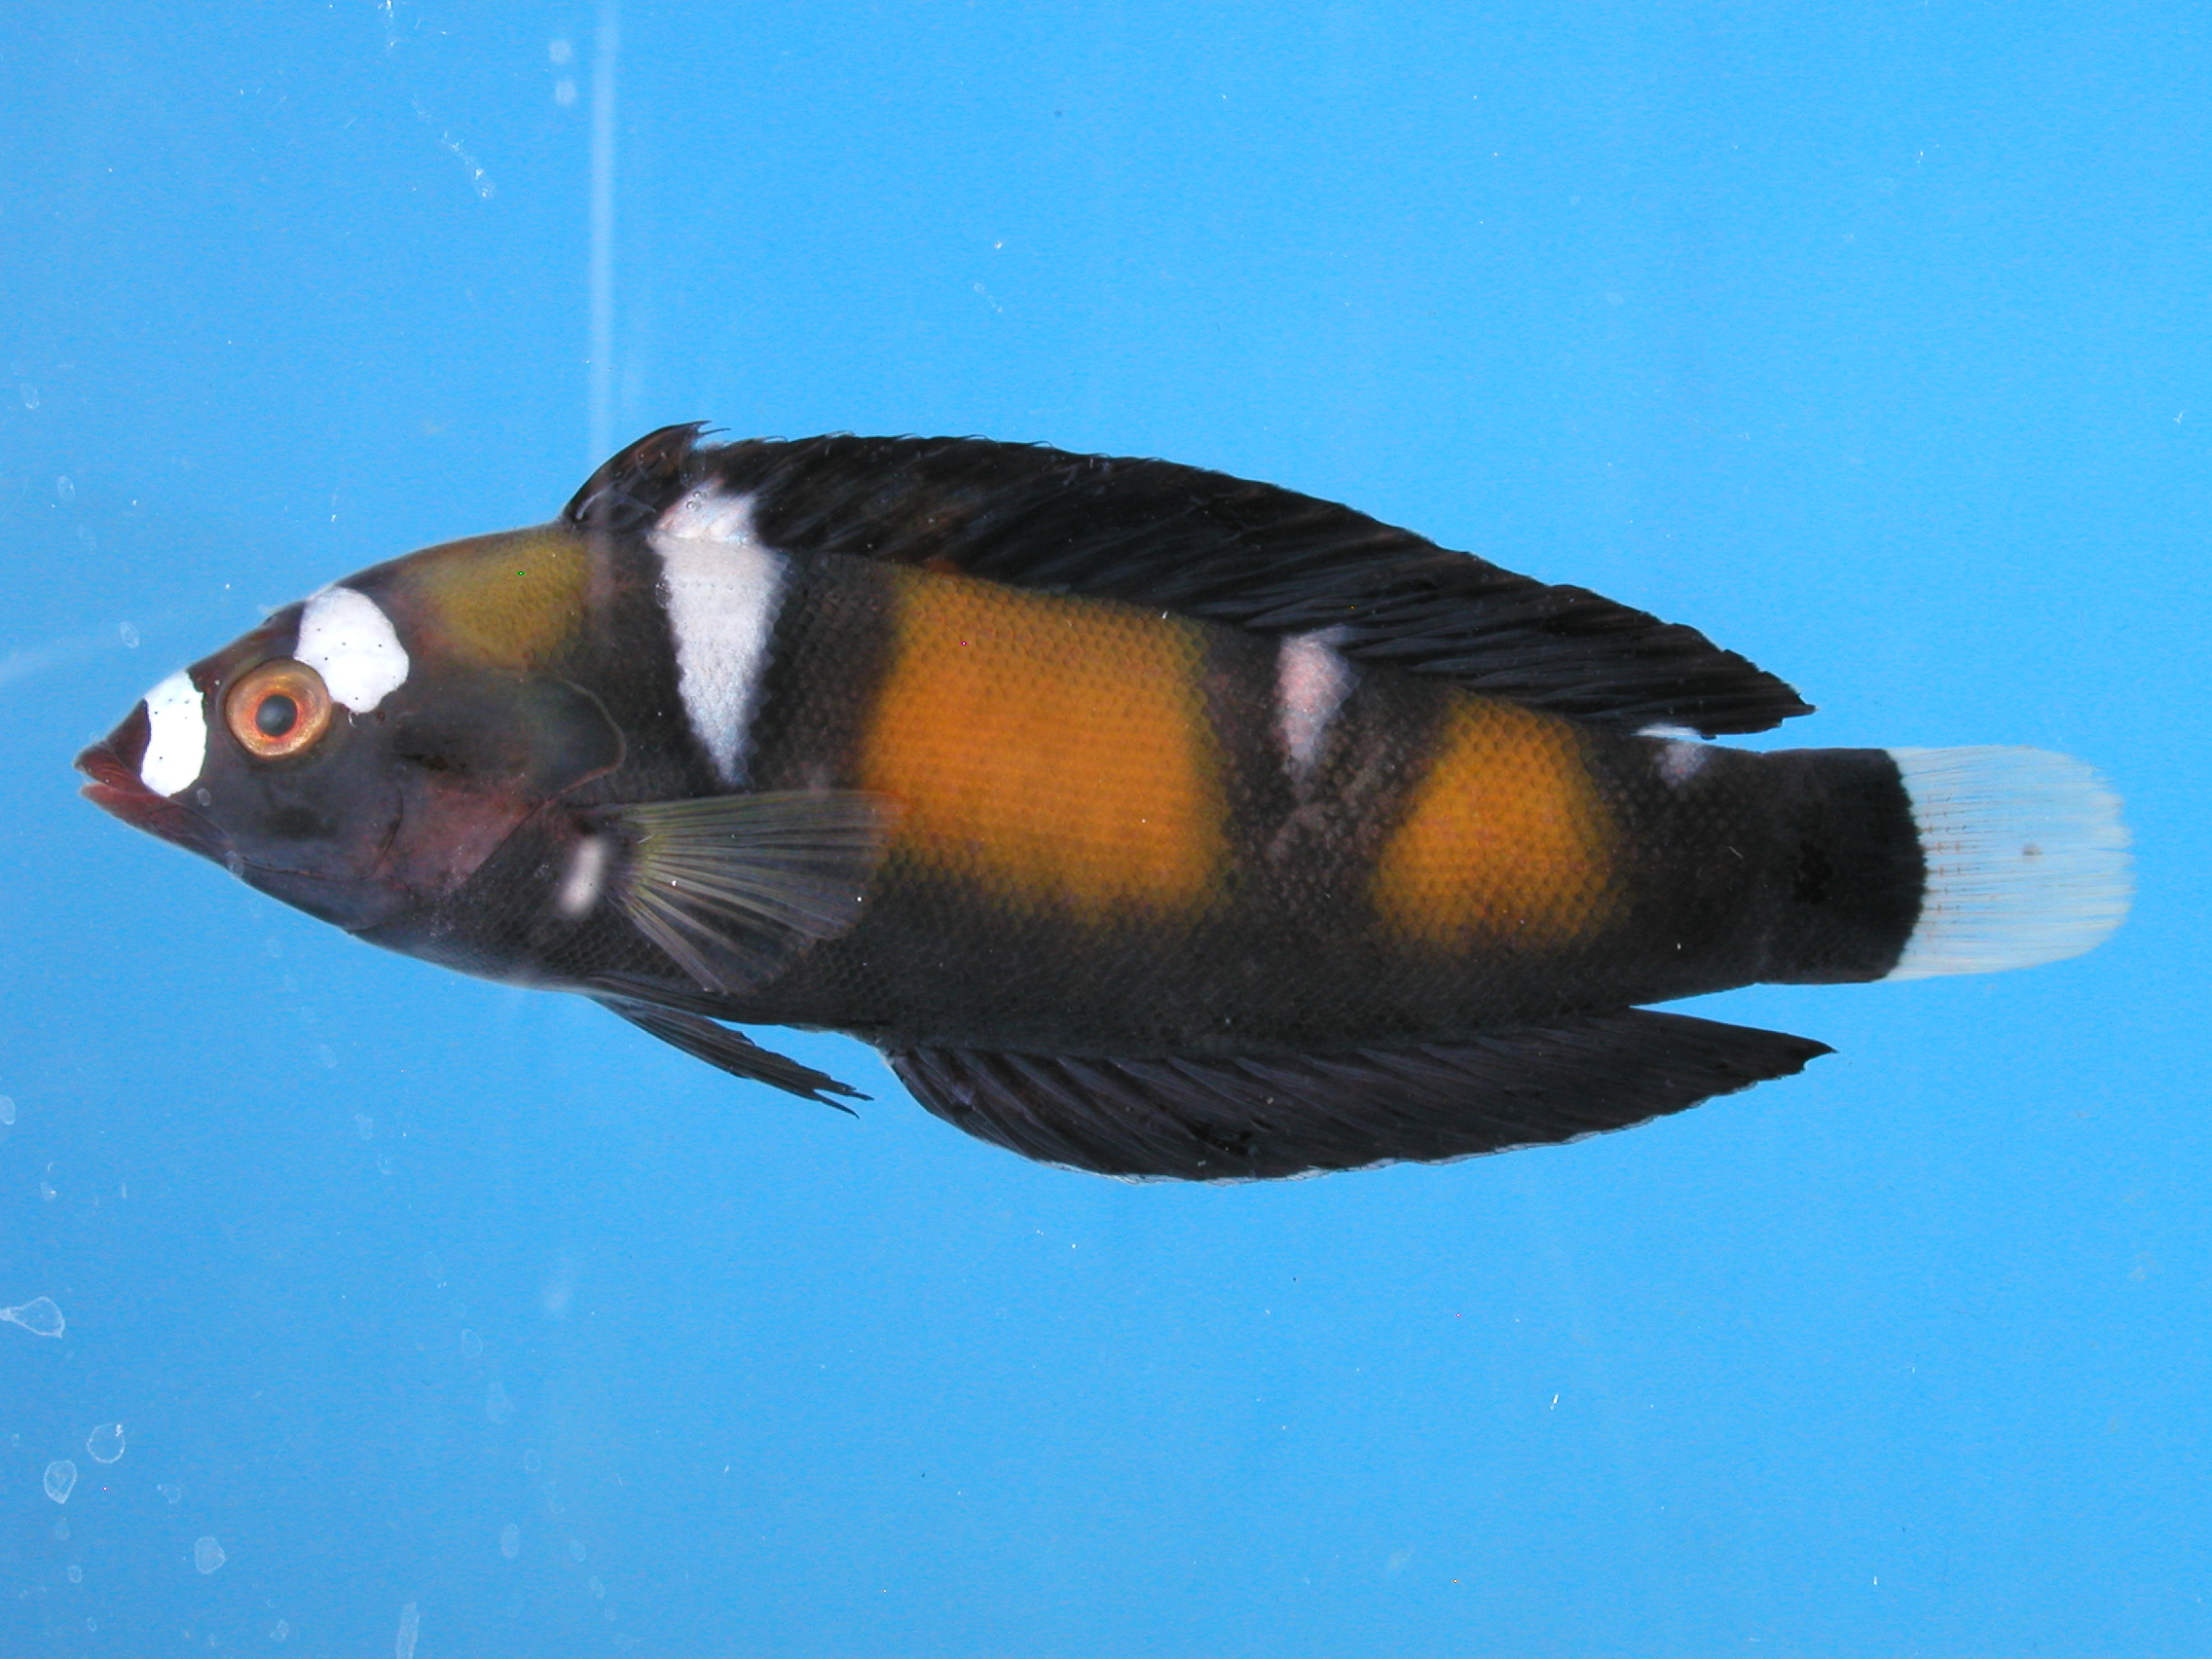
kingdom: Animalia
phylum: Chordata
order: Perciformes
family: Labridae
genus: Coris
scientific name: Coris formosa
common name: Queen coris
